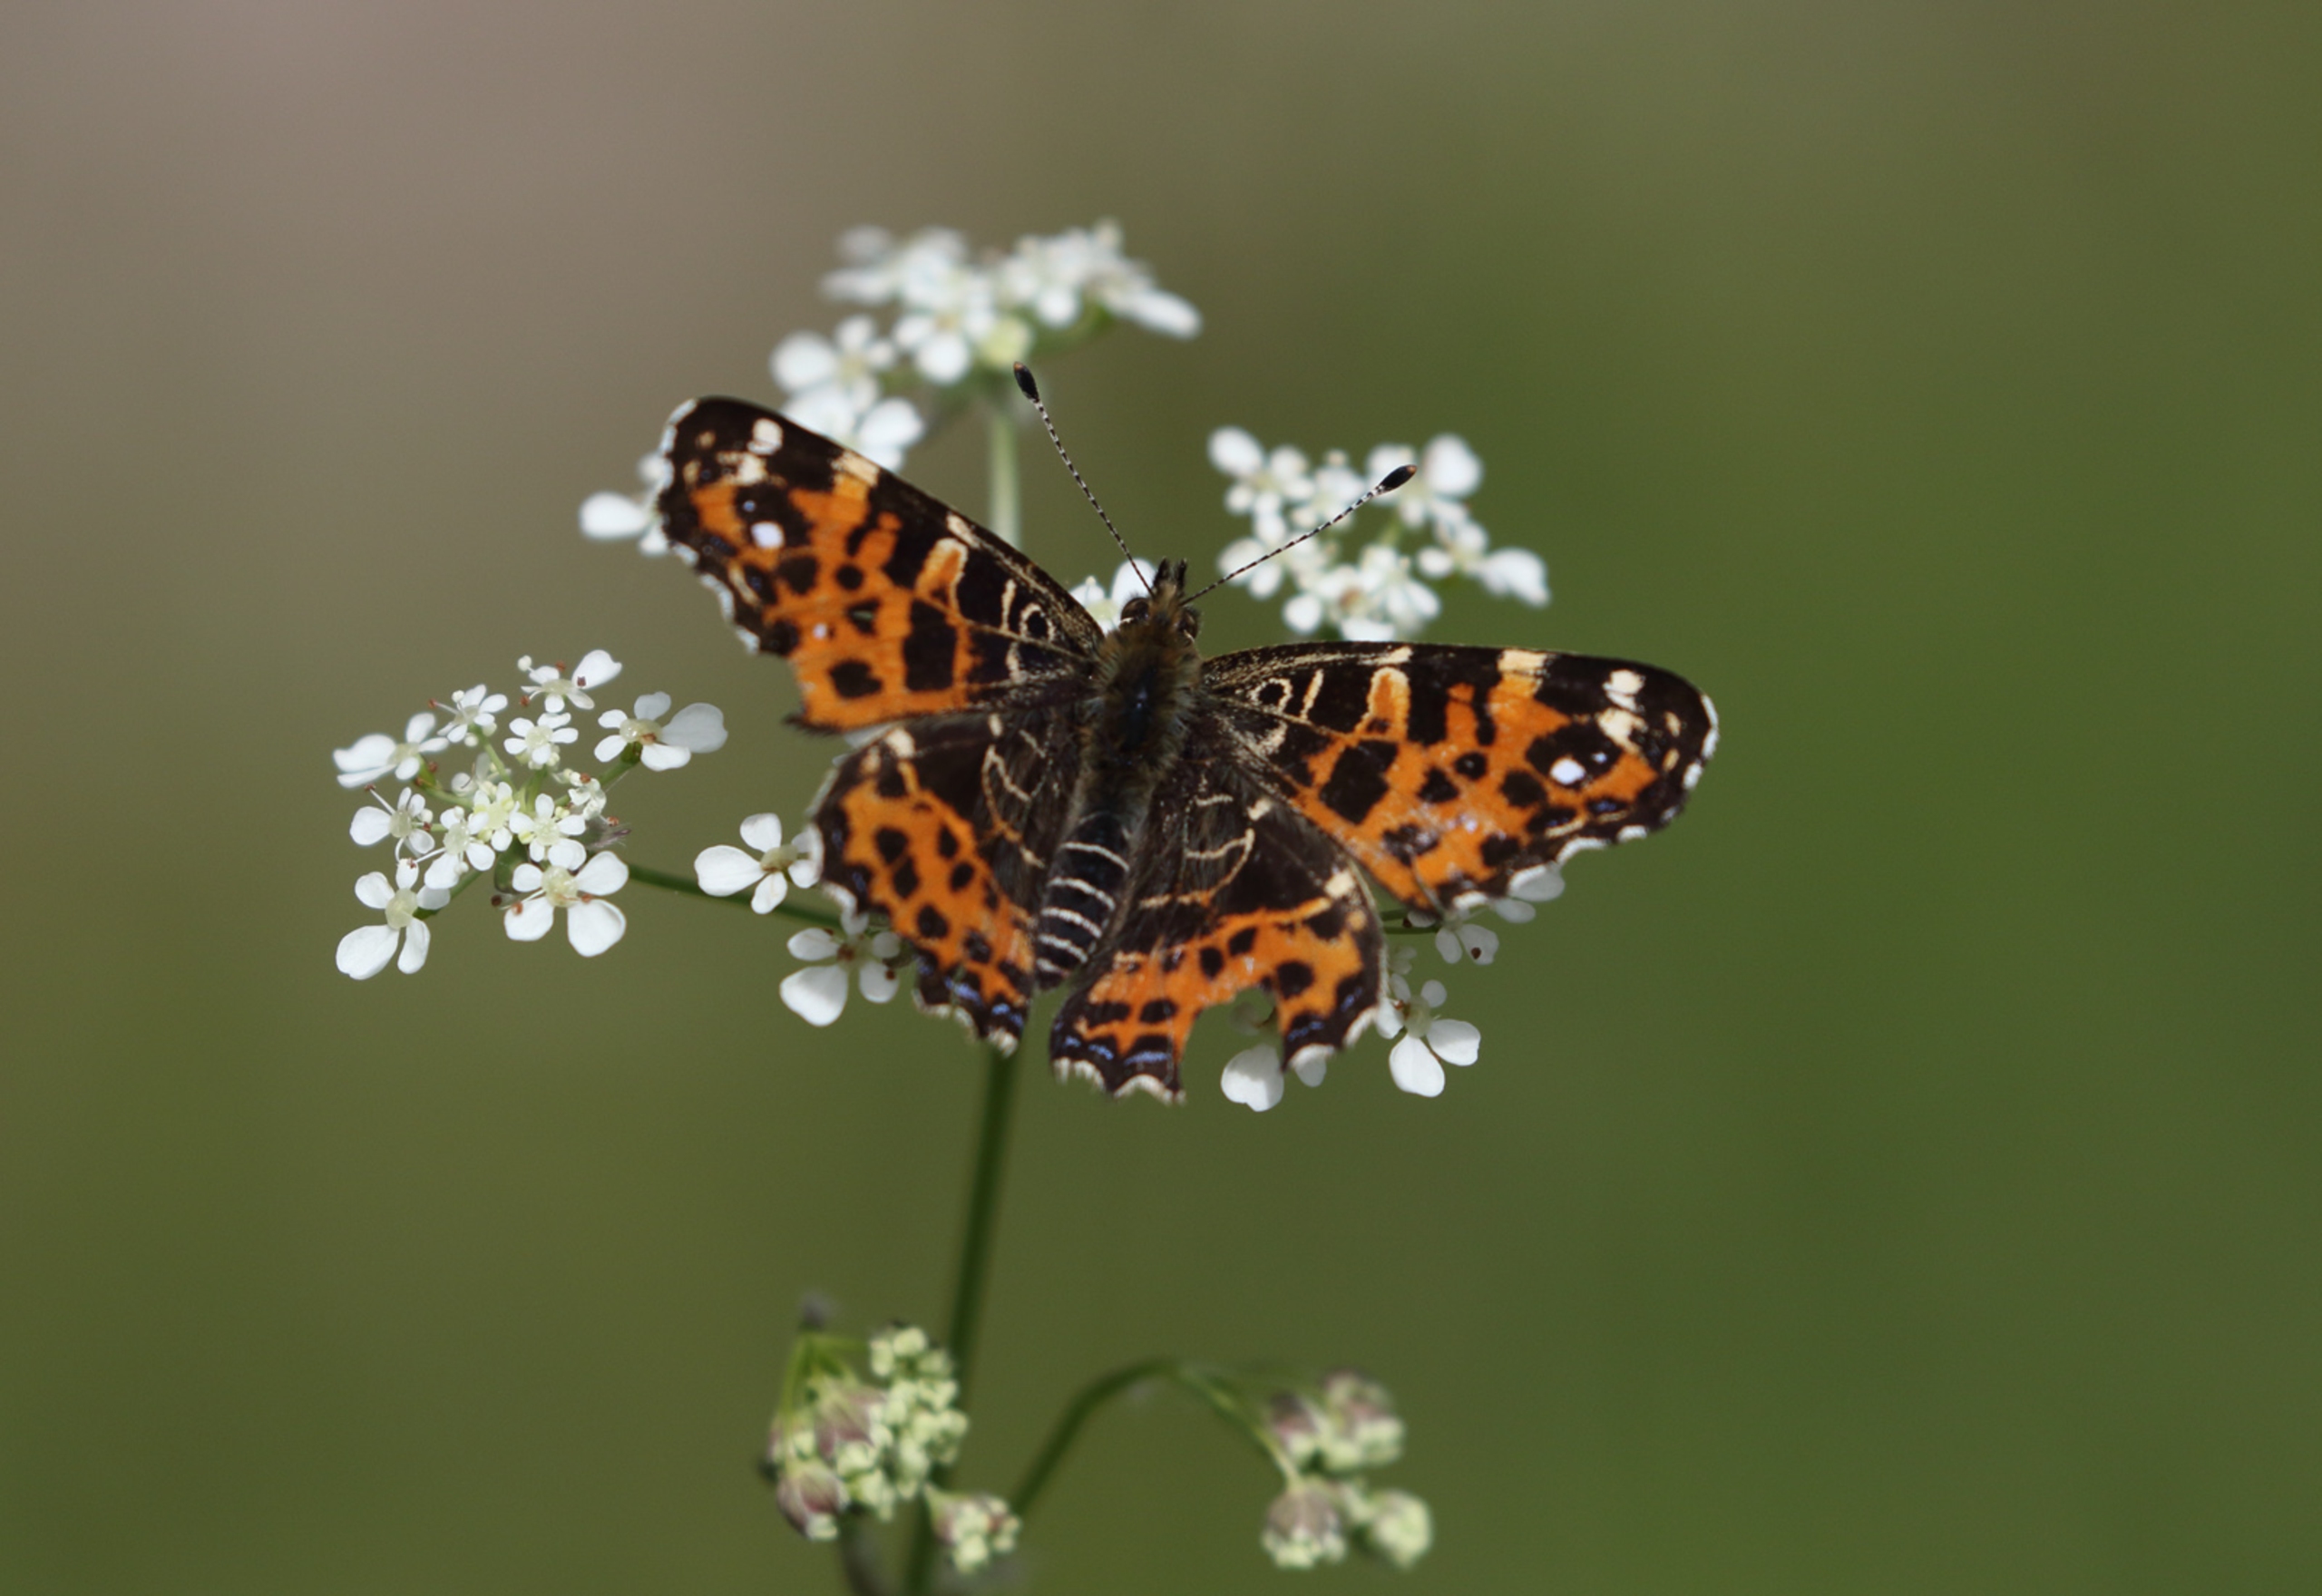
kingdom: Animalia
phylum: Arthropoda
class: Insecta
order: Lepidoptera
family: Nymphalidae
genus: Araschnia
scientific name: Araschnia levana
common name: Nældesommerfugl
